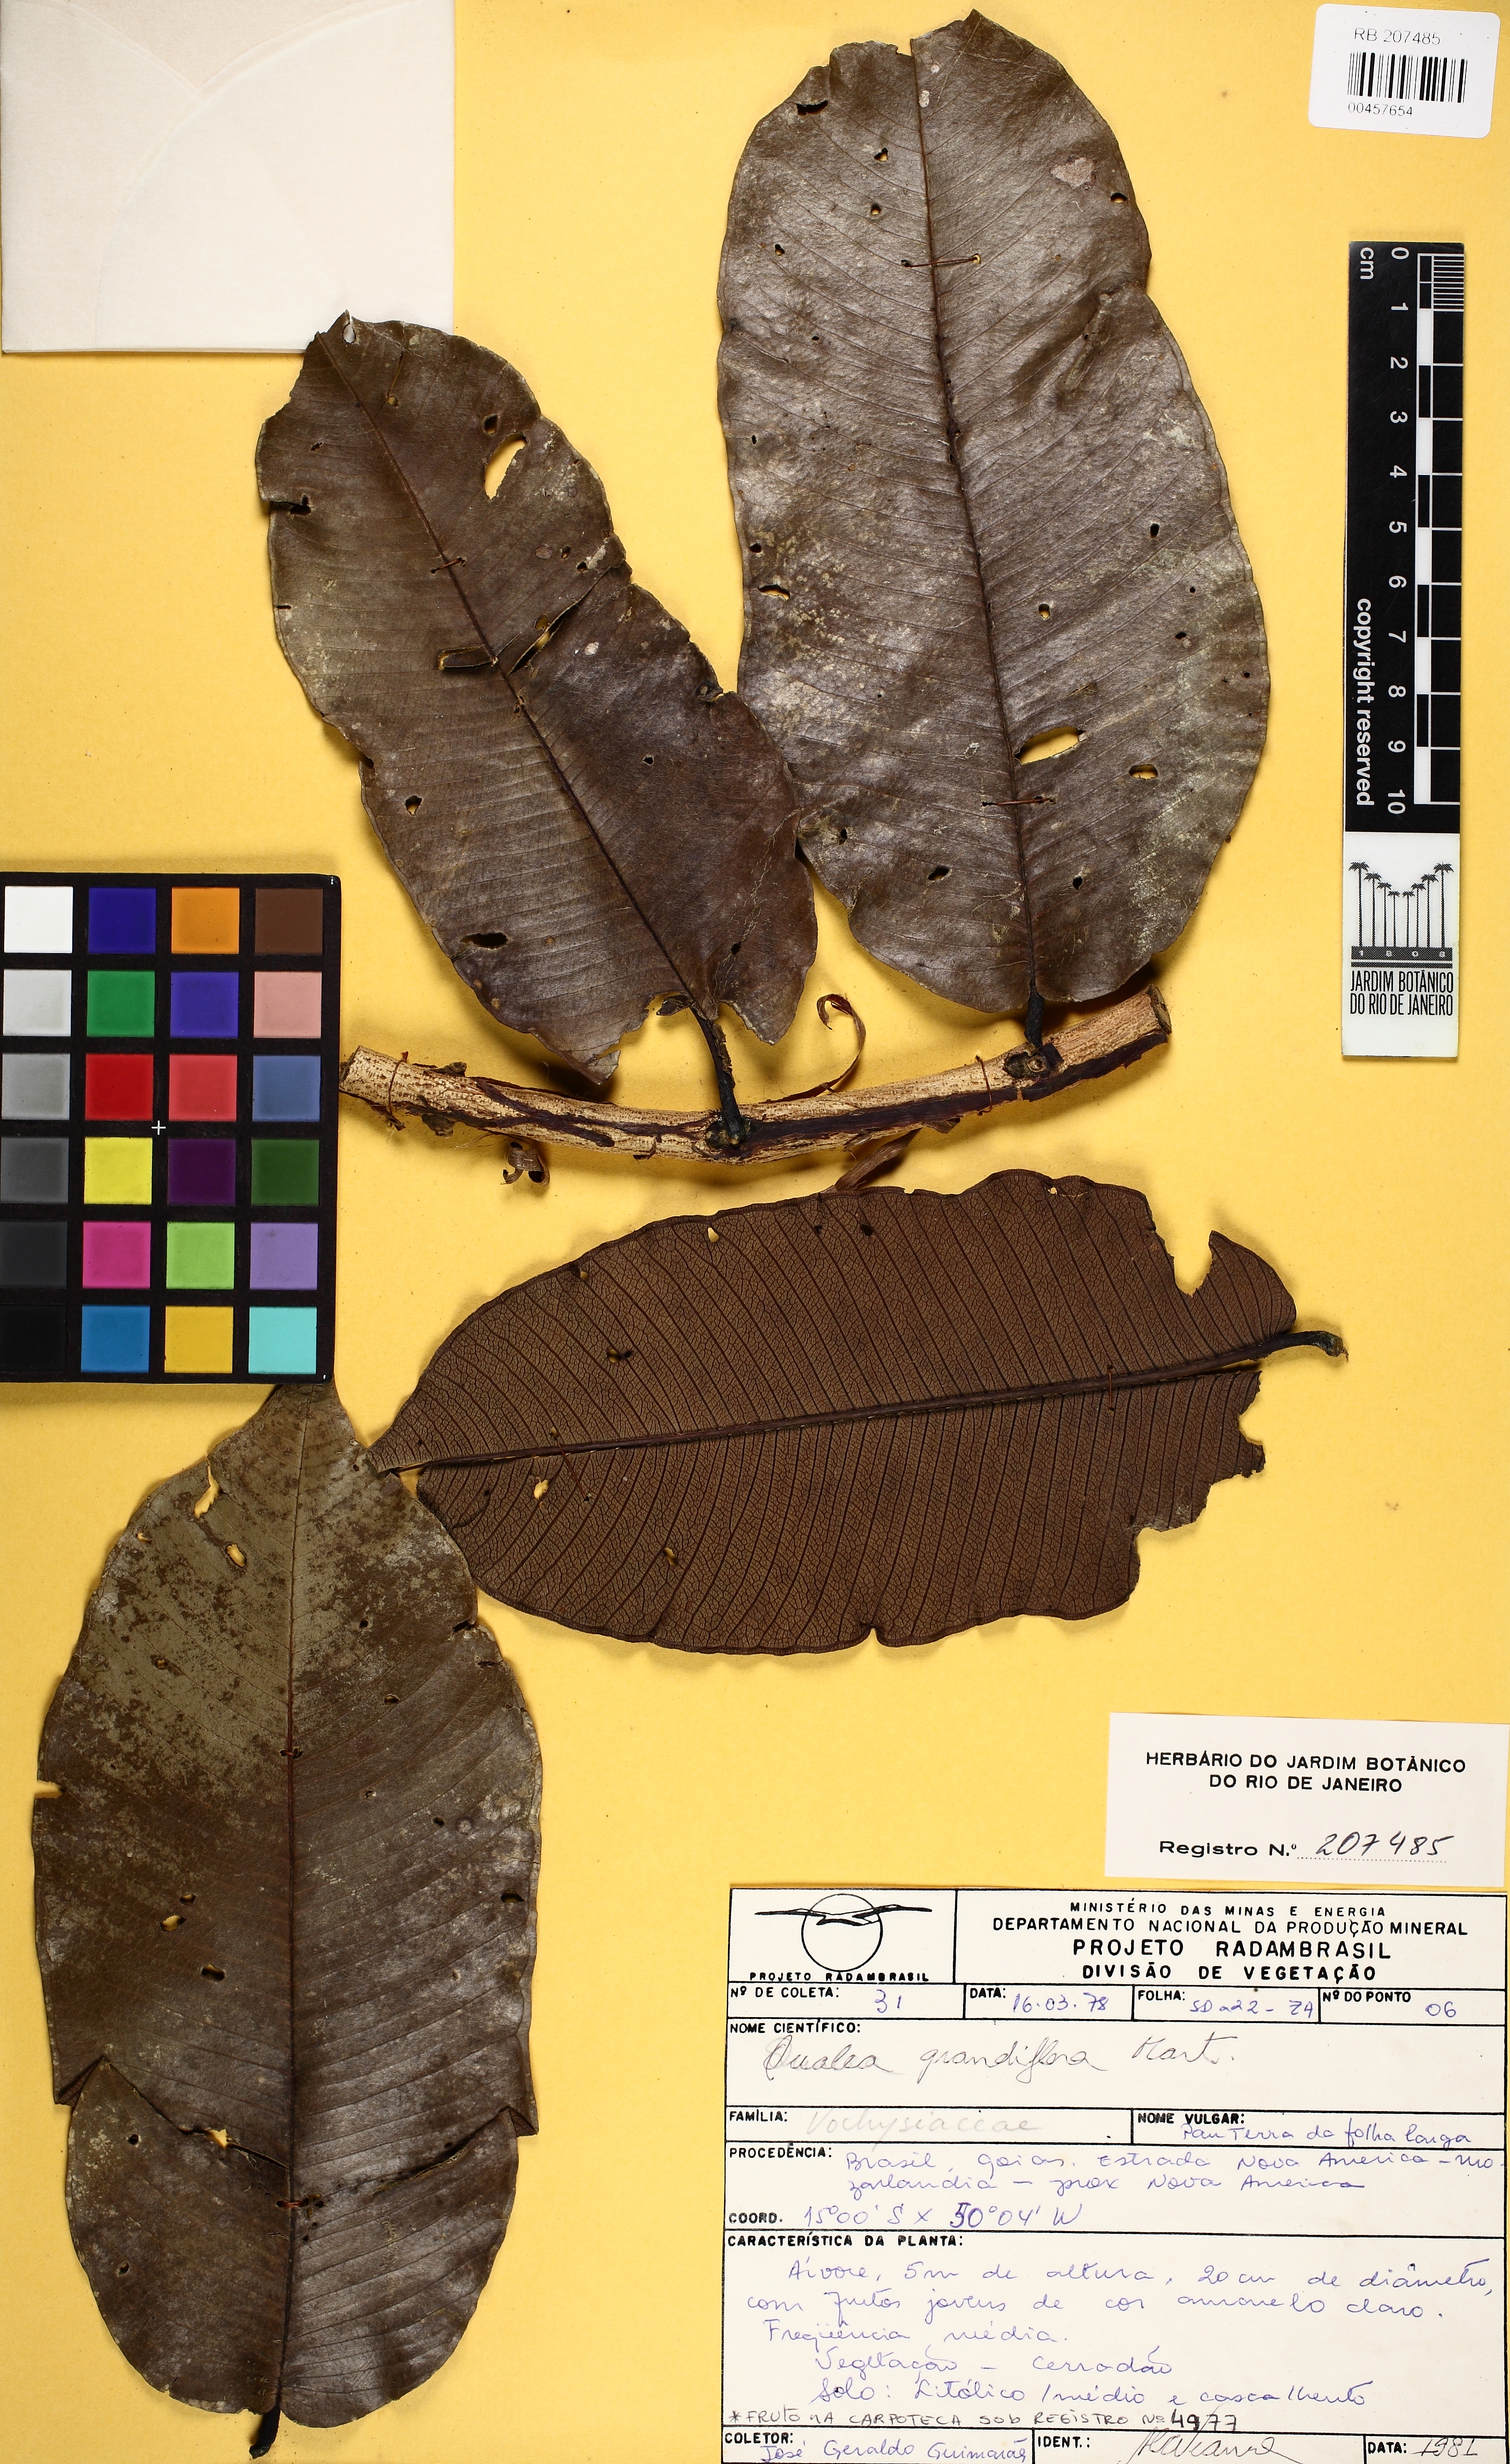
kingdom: Plantae
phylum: Tracheophyta
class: Magnoliopsida
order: Myrtales
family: Vochysiaceae
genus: Qualea
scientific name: Qualea grandiflora
